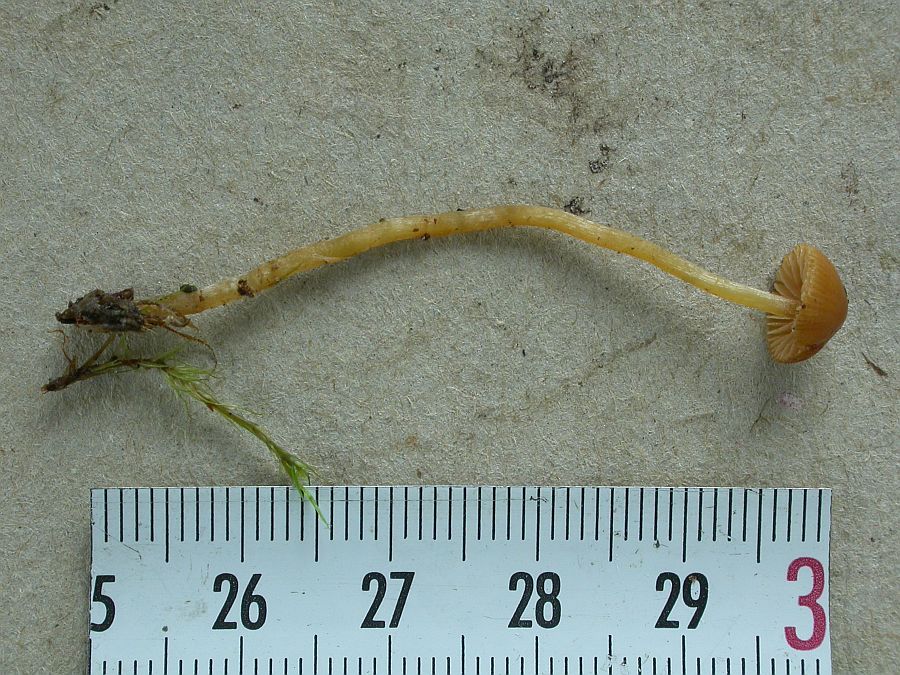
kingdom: Fungi
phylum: Basidiomycota
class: Agaricomycetes
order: Agaricales
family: Hymenogastraceae
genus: Galerina
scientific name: Galerina pumila
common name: honninggul hjelmhat
